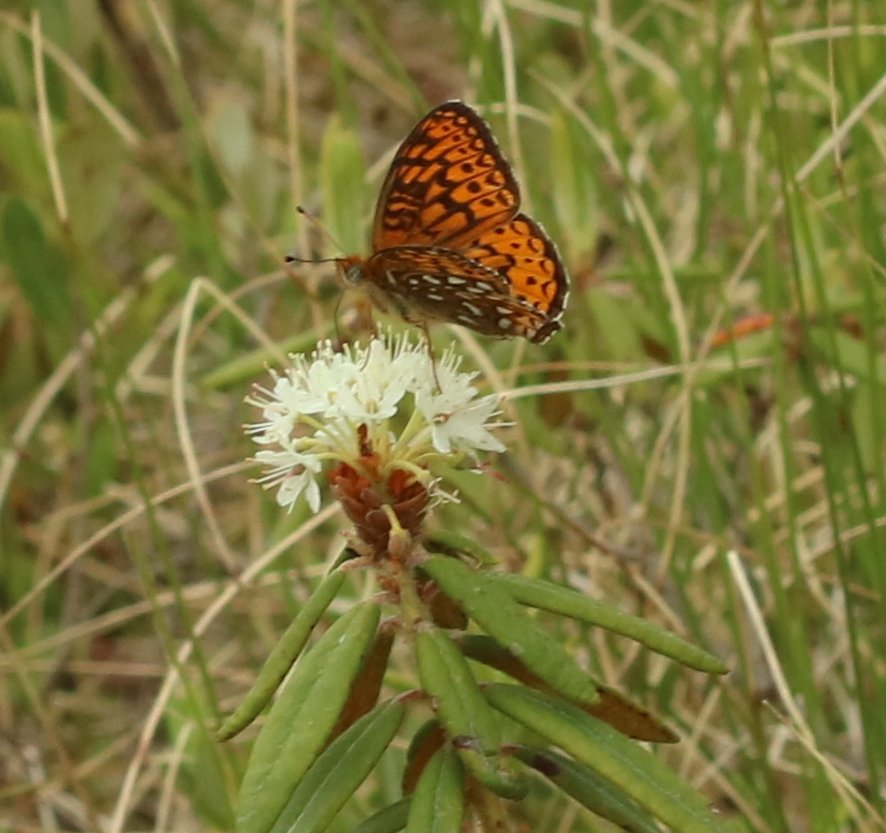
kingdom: Animalia
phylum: Arthropoda
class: Insecta
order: Lepidoptera
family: Nymphalidae
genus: Speyeria
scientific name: Speyeria atlantis
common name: Atlantis Fritillary
